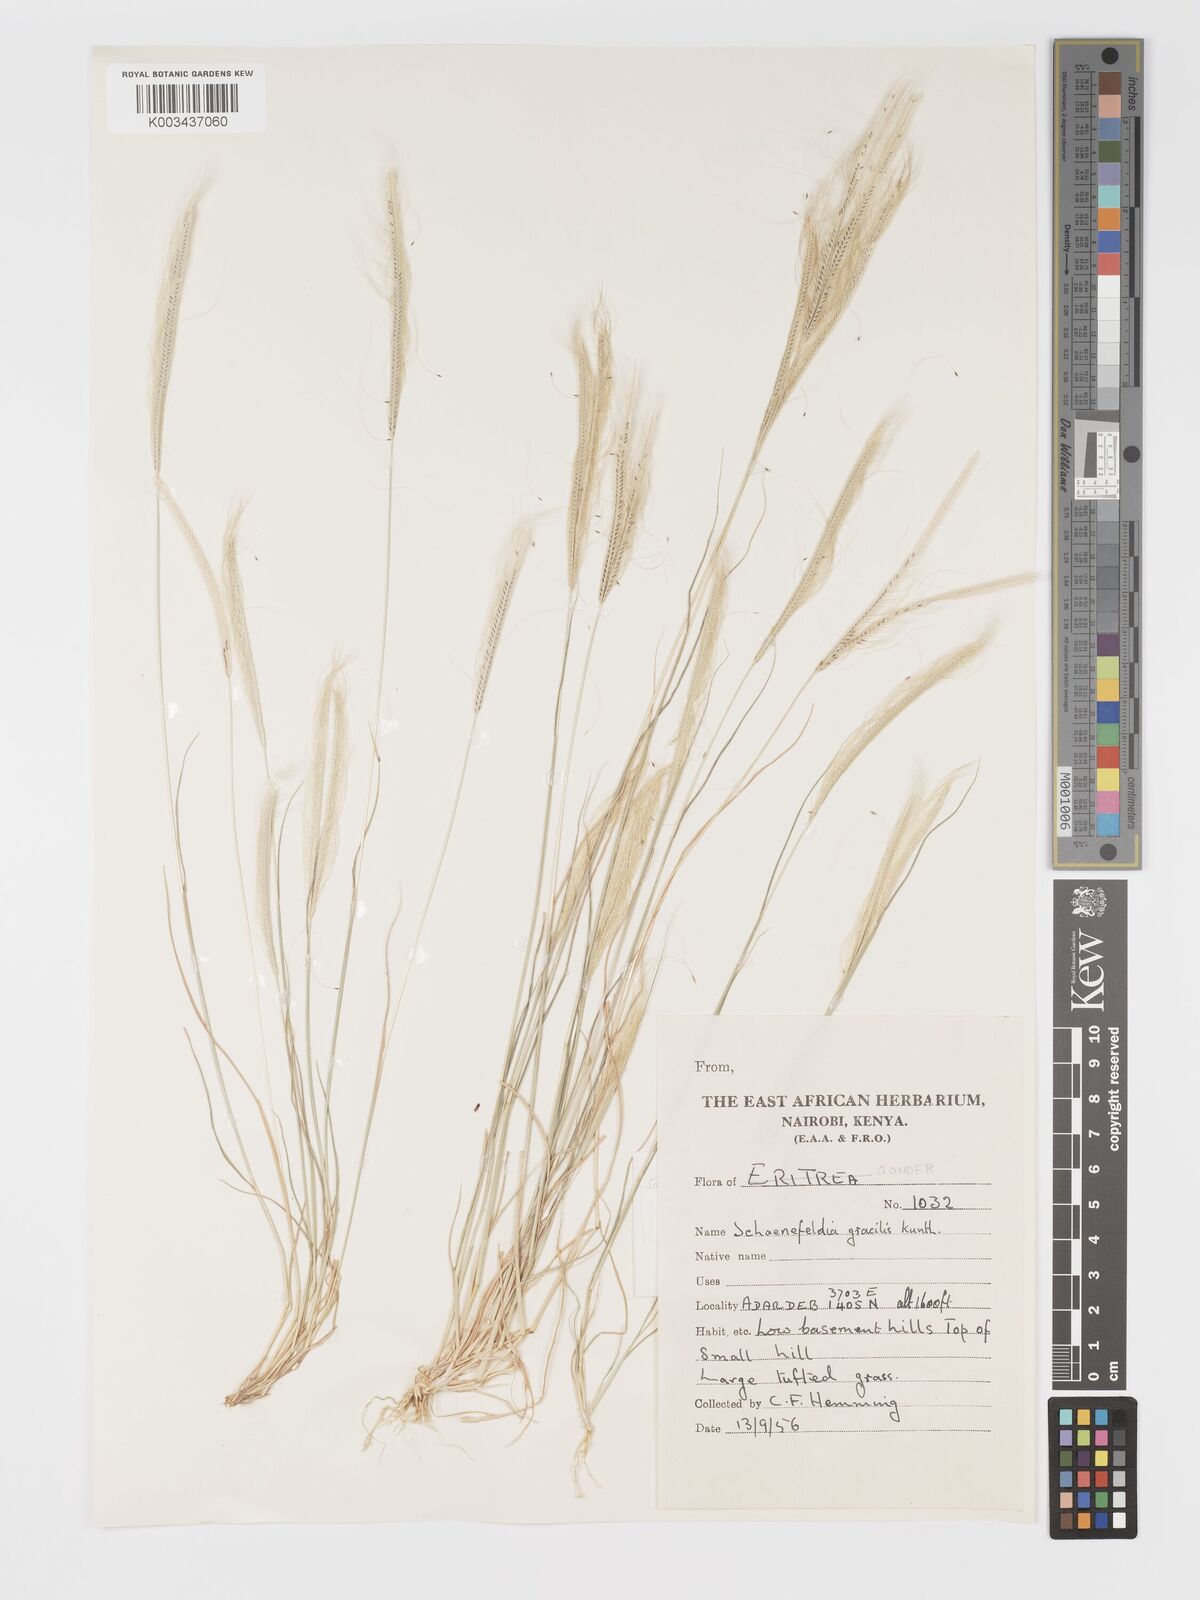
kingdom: Plantae
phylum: Tracheophyta
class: Liliopsida
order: Poales
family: Poaceae
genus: Schoenefeldia
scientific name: Schoenefeldia gracilis
